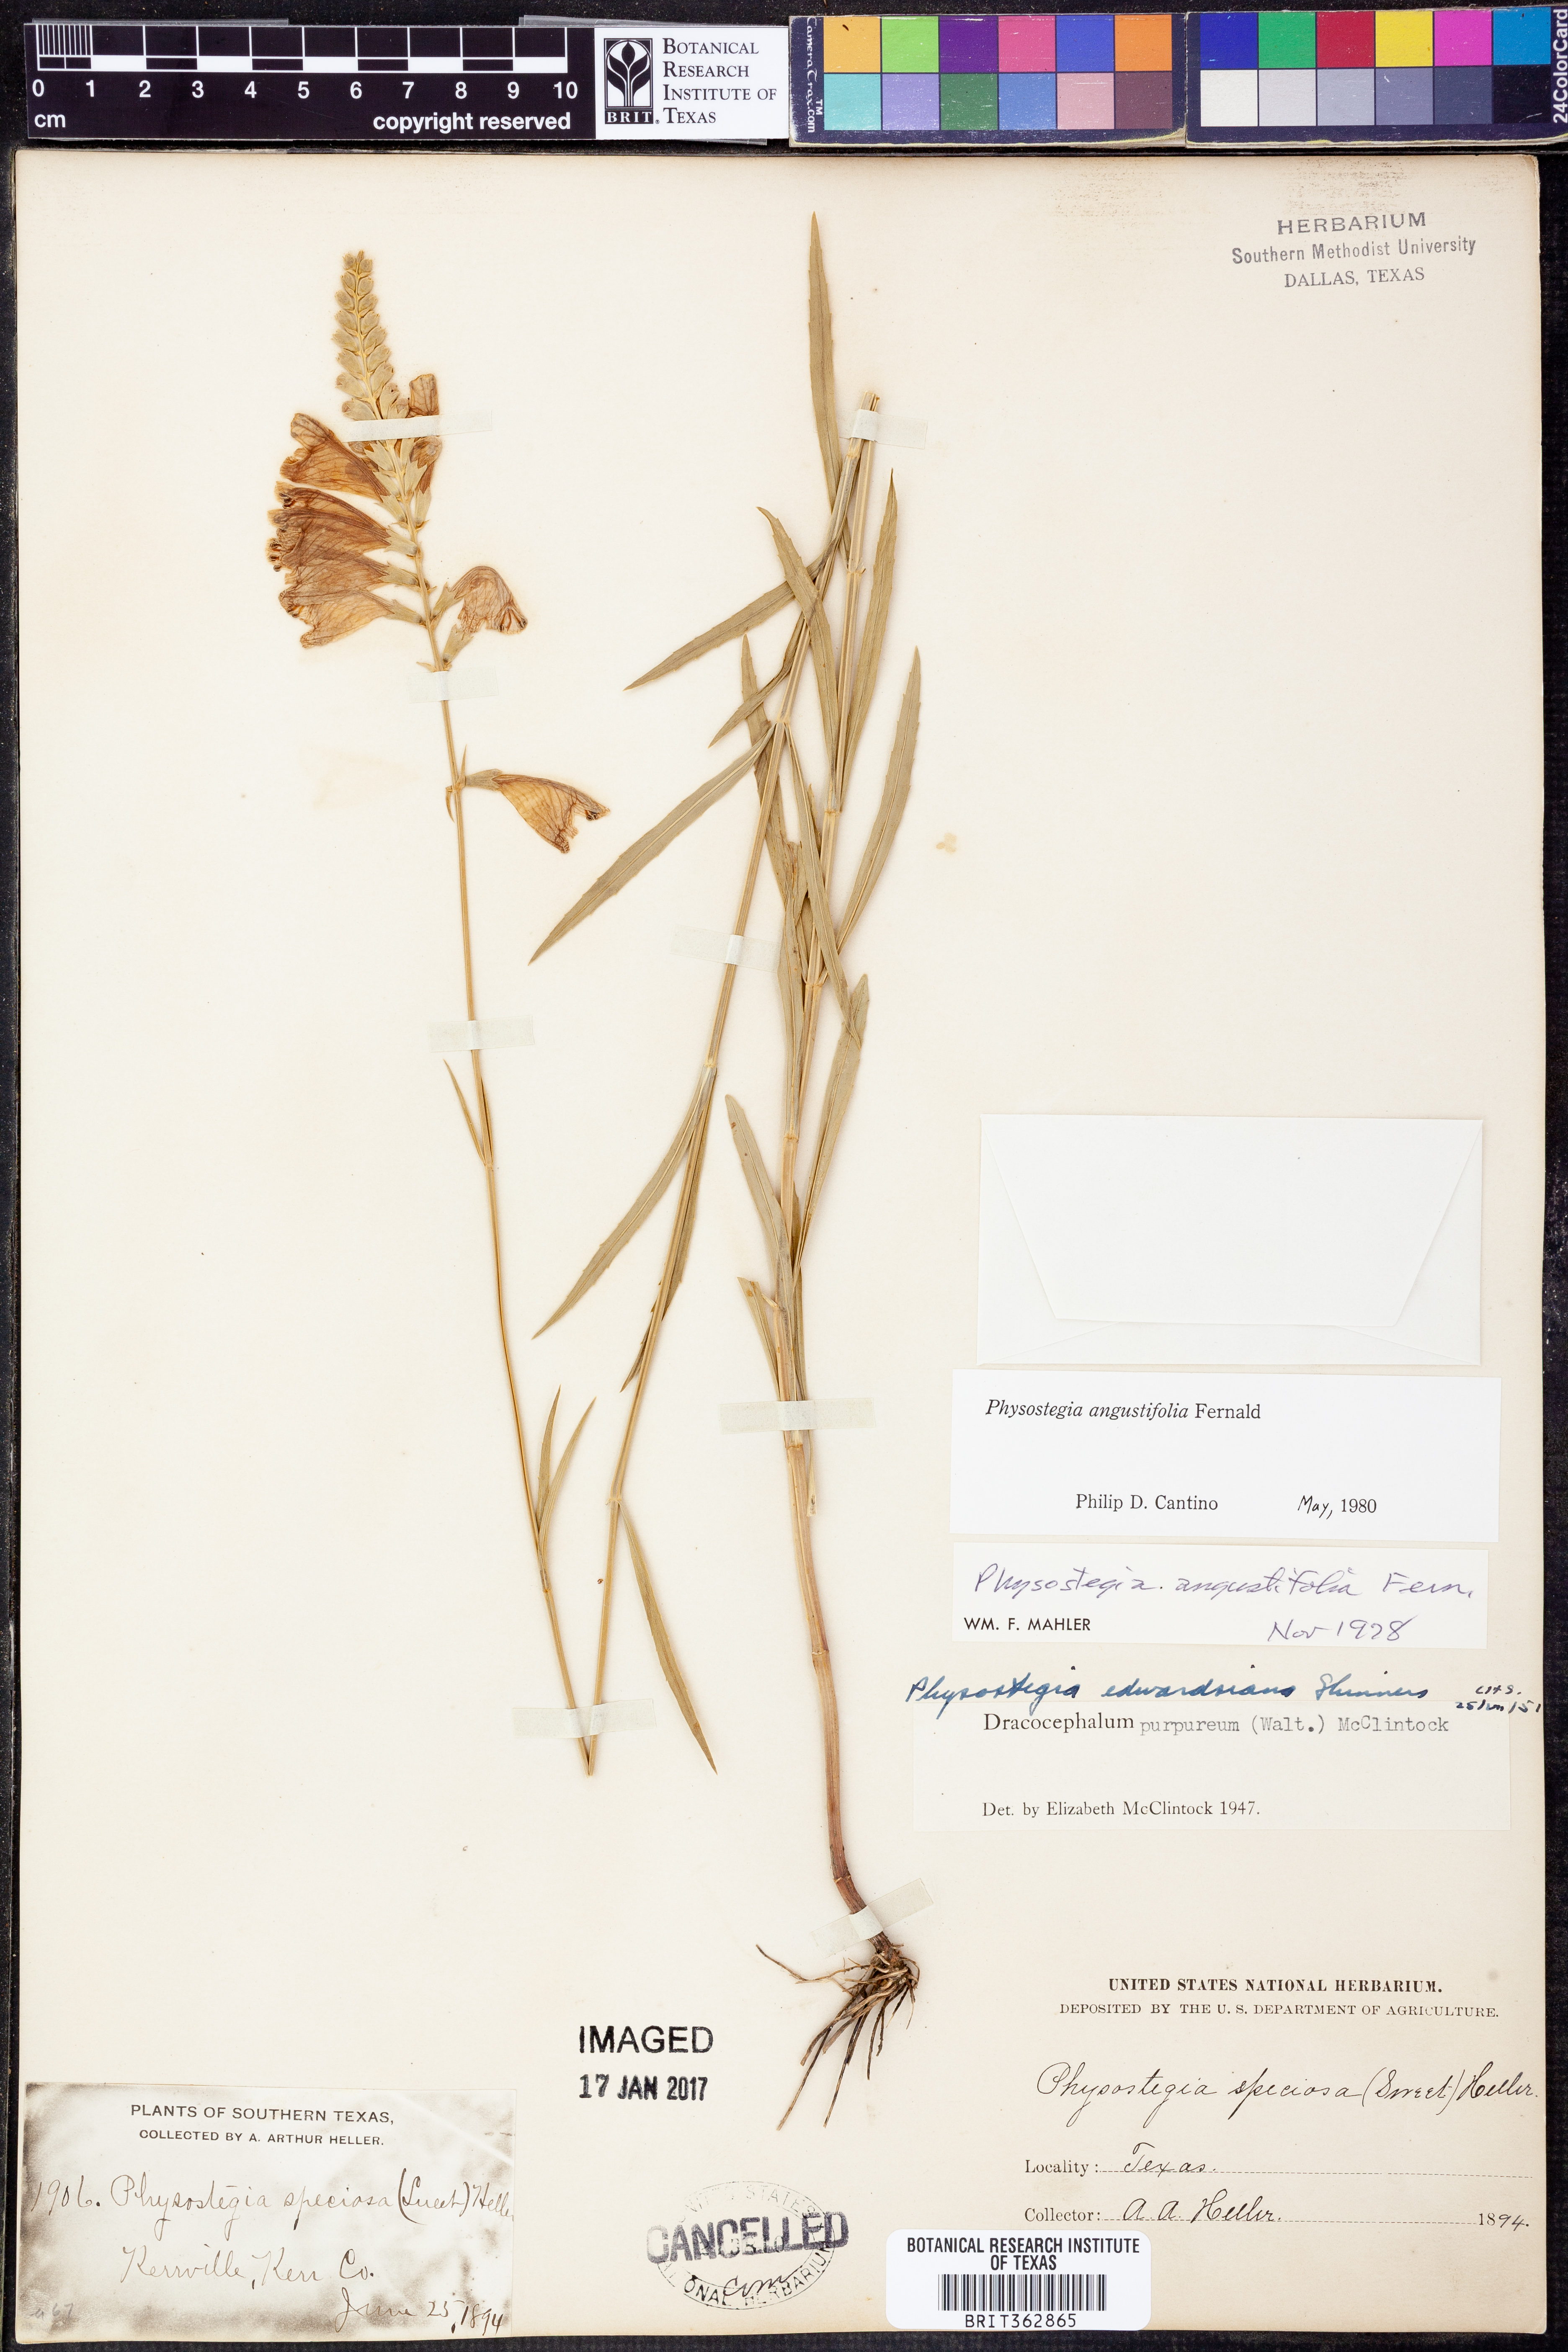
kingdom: Plantae
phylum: Tracheophyta
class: Magnoliopsida
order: Lamiales
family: Lamiaceae
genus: Physostegia
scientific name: Physostegia angustifolia
